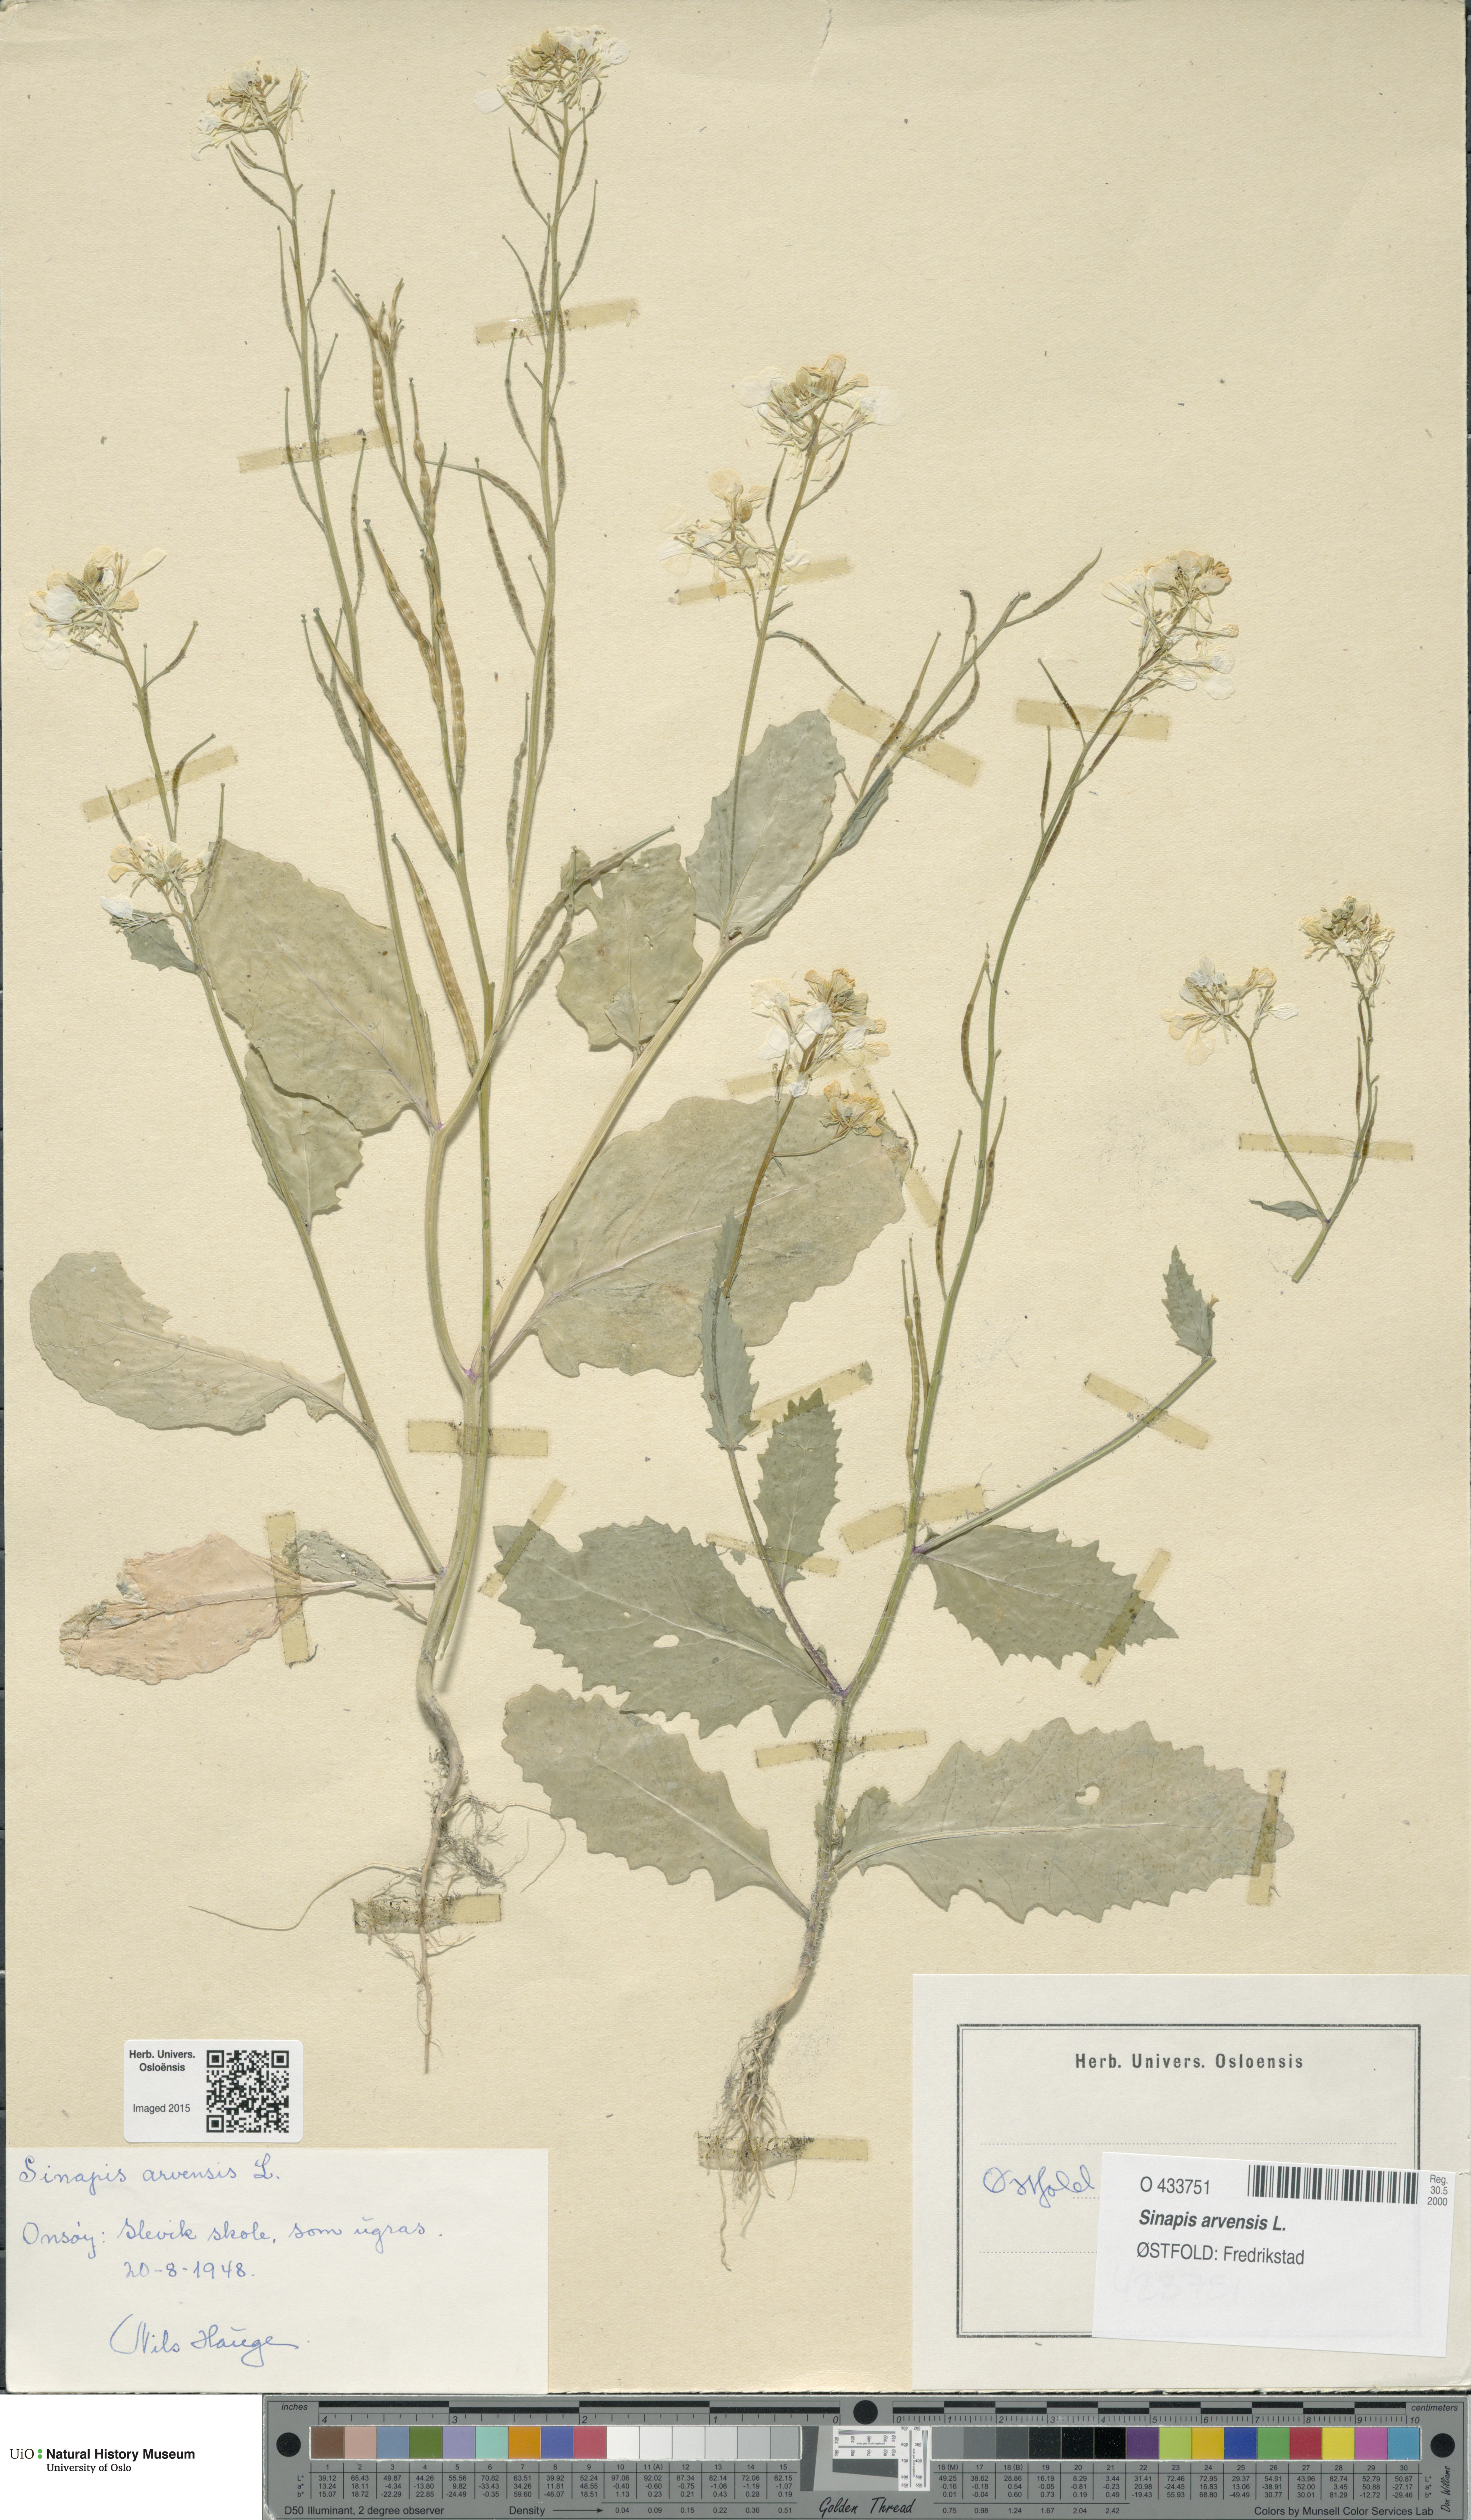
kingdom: Plantae
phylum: Tracheophyta
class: Magnoliopsida
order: Brassicales
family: Brassicaceae
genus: Sinapis
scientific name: Sinapis arvensis
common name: Charlock
